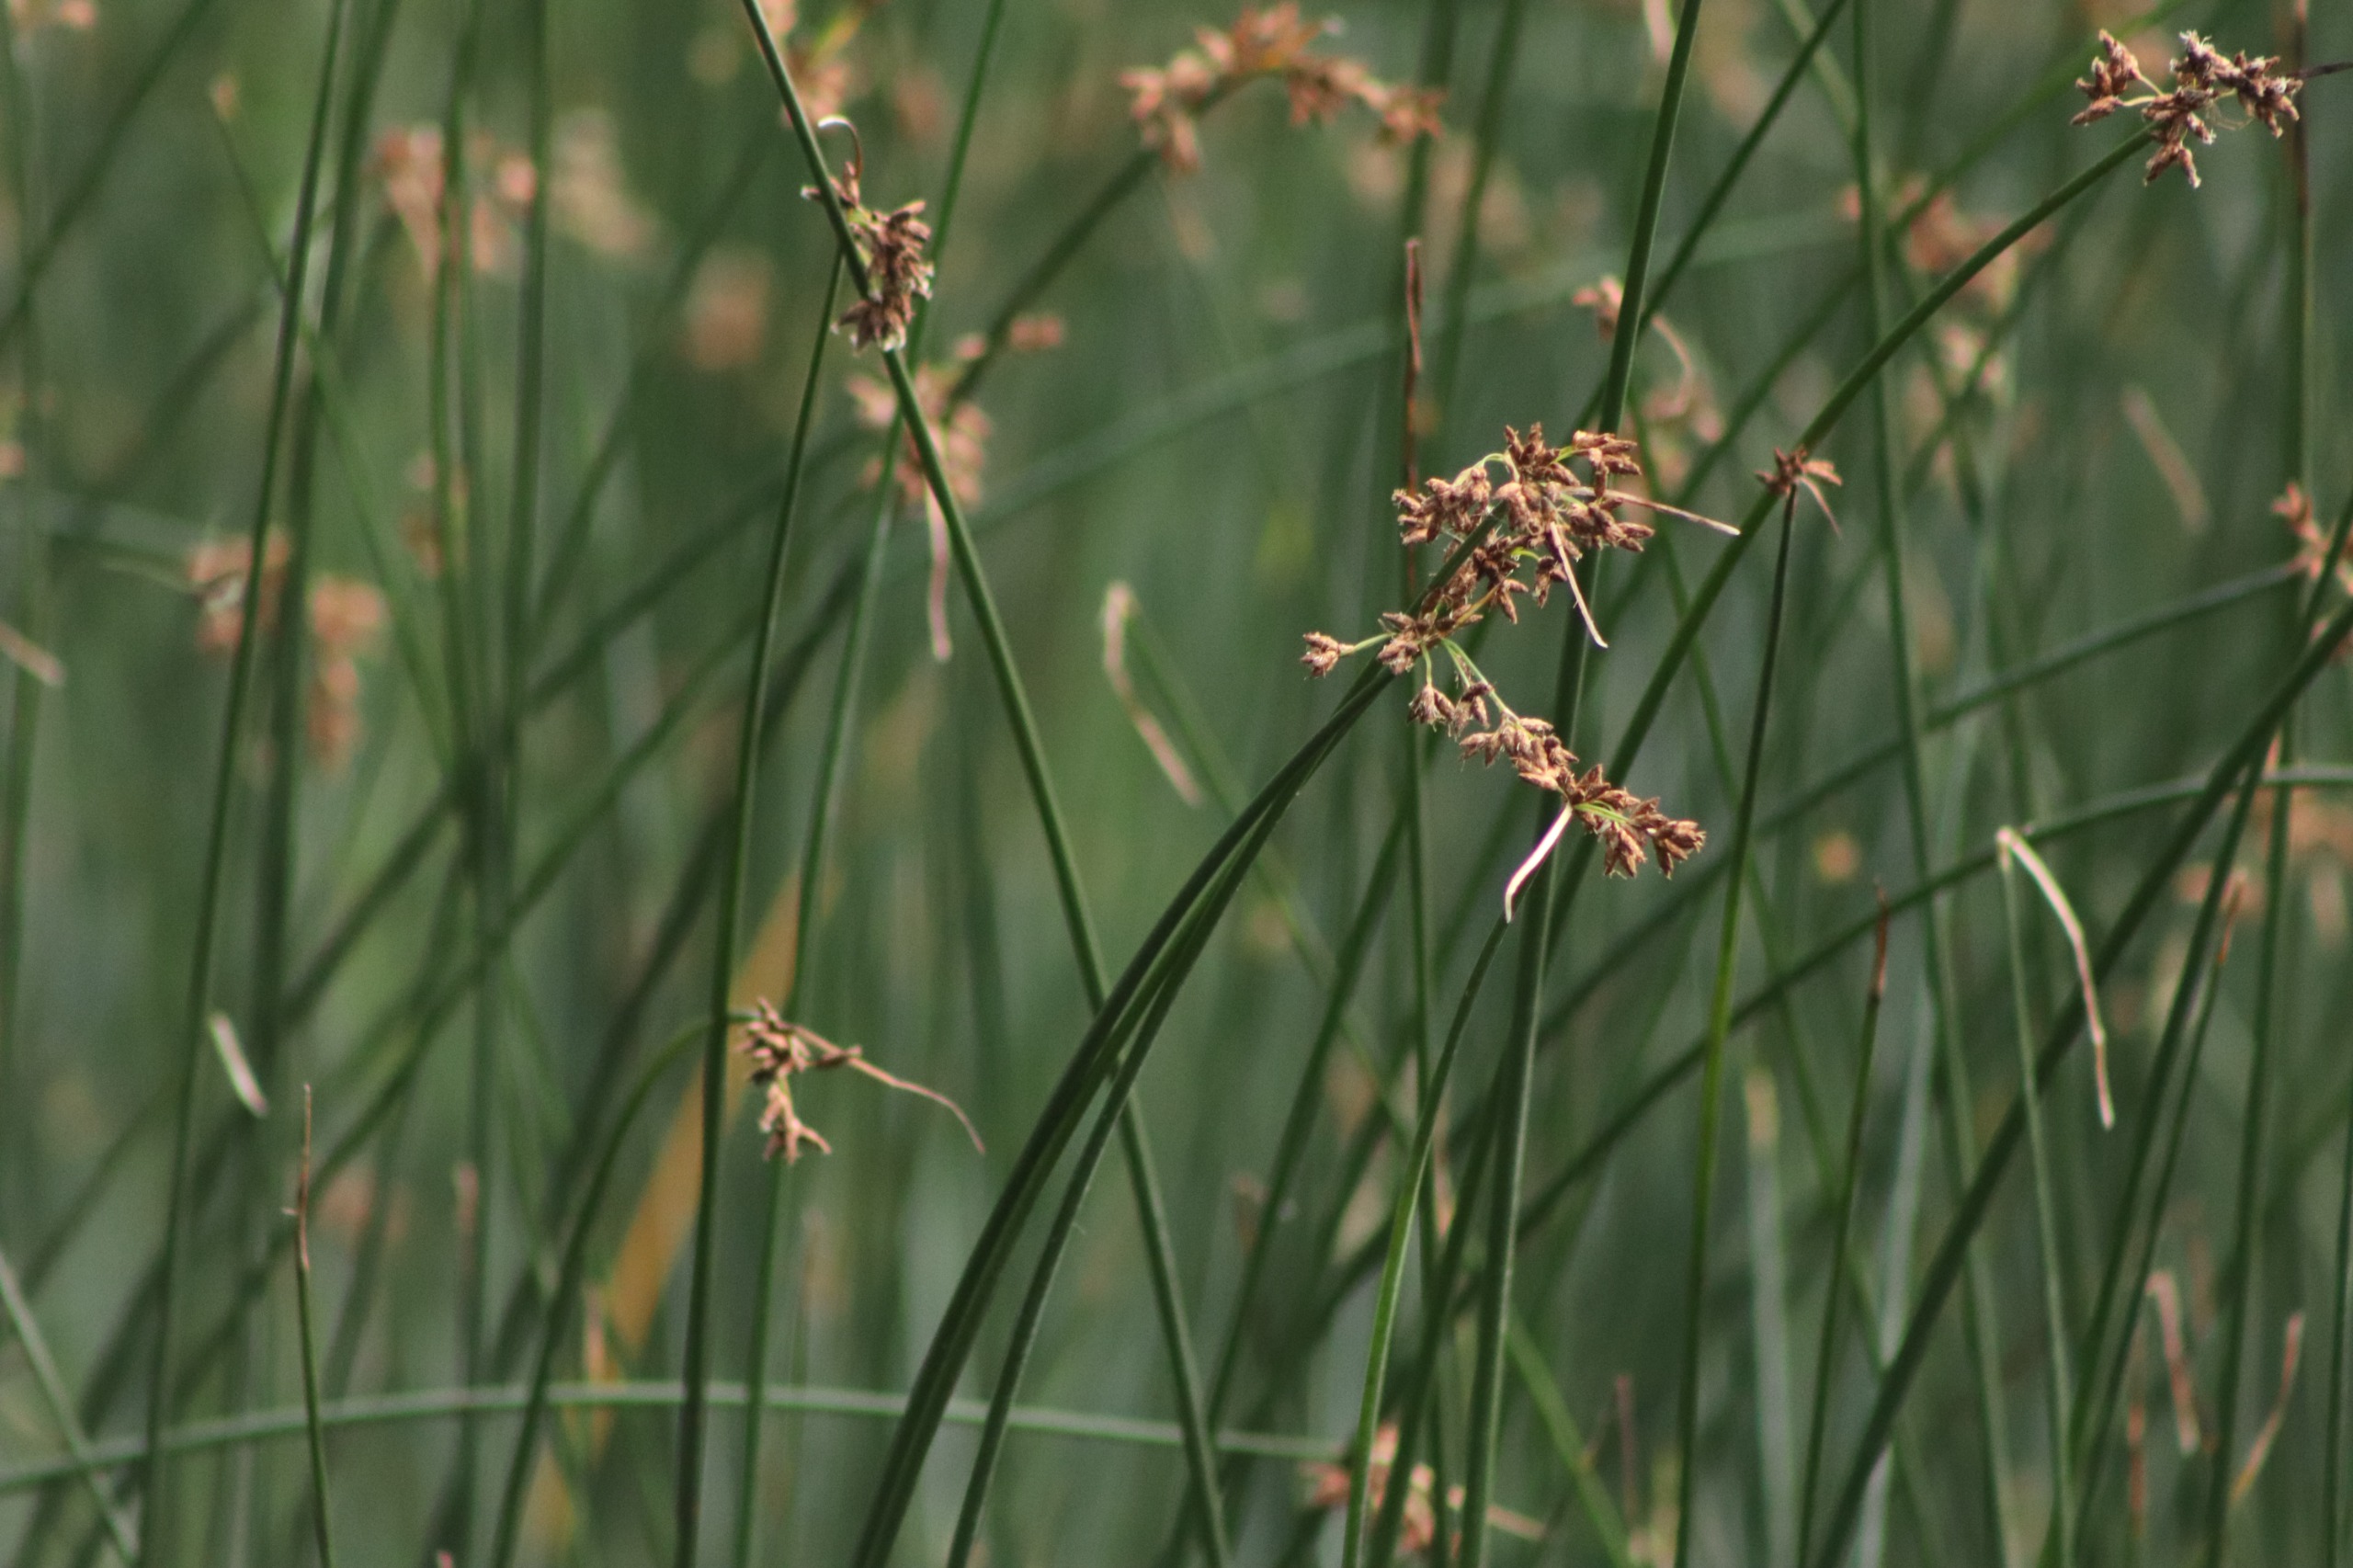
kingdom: Plantae
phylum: Tracheophyta
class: Liliopsida
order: Poales
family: Cyperaceae
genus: Schoenoplectus
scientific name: Schoenoplectus lacustris
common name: Sø-kogleaks
